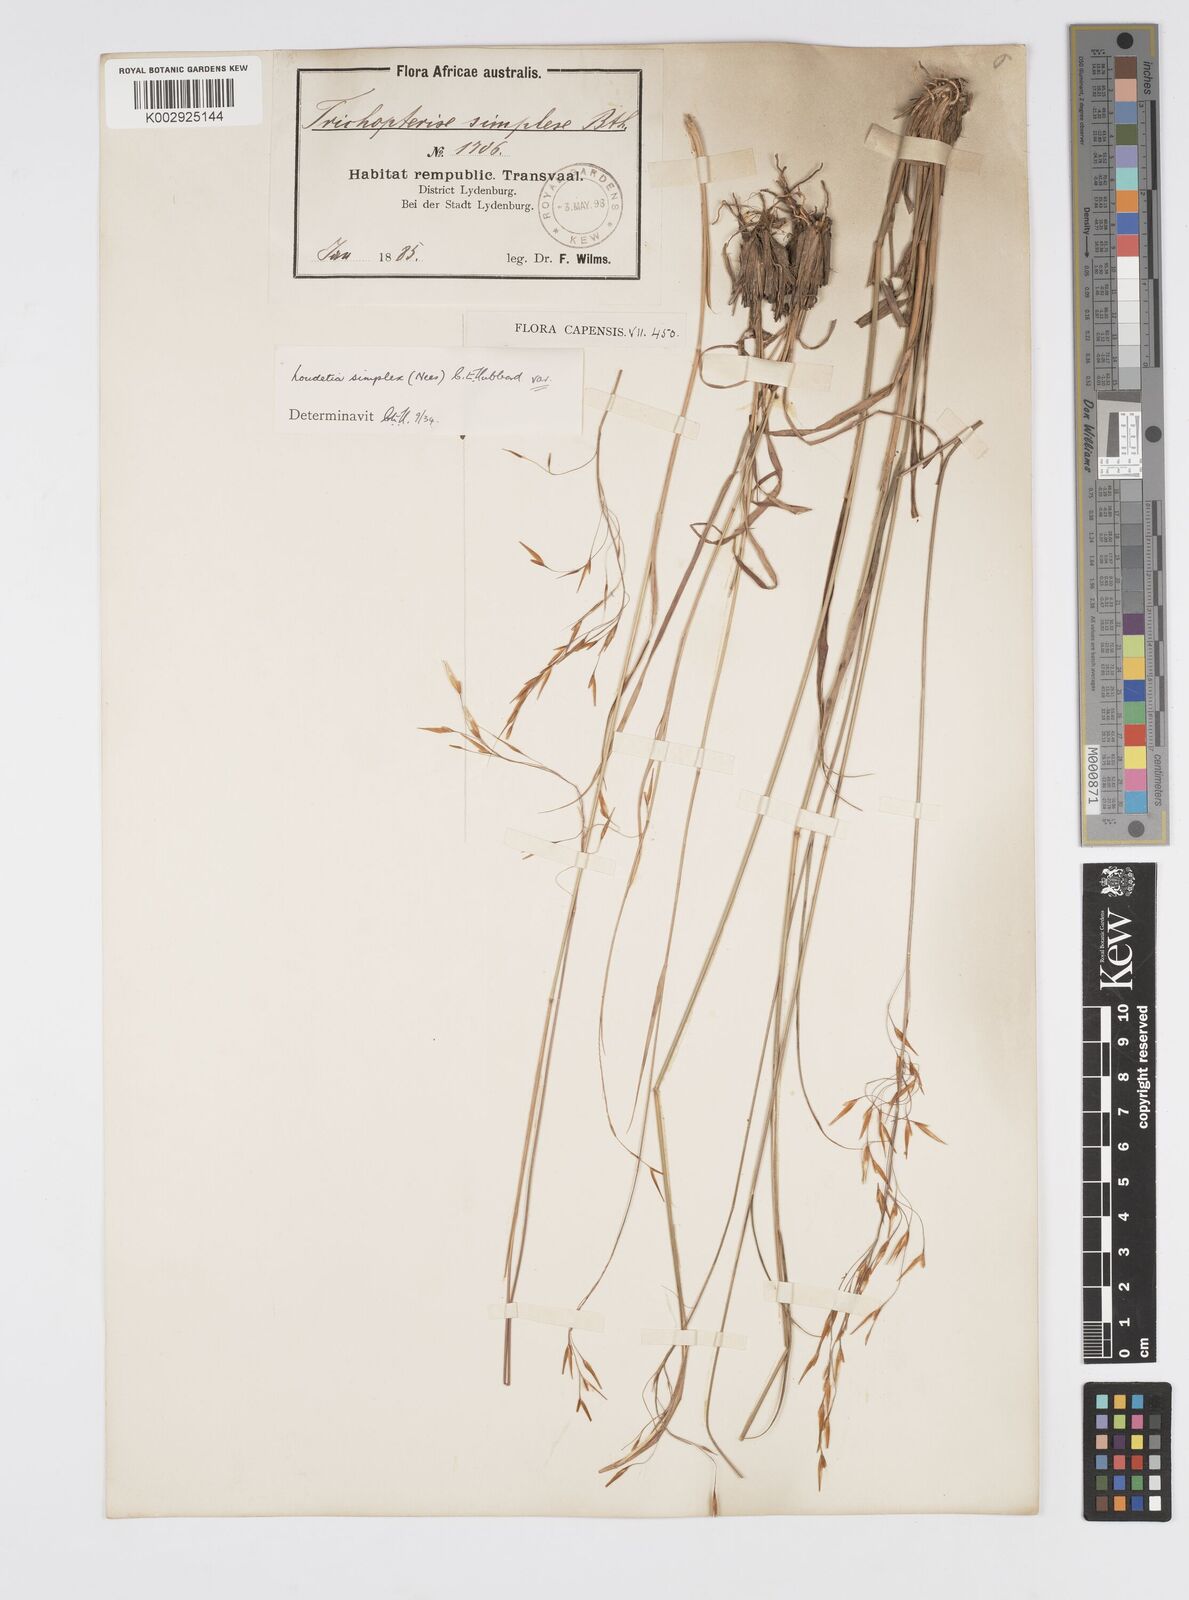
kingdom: Plantae
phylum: Tracheophyta
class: Liliopsida
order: Poales
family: Poaceae
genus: Loudetia
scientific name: Loudetia simplex
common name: Common russet grass
